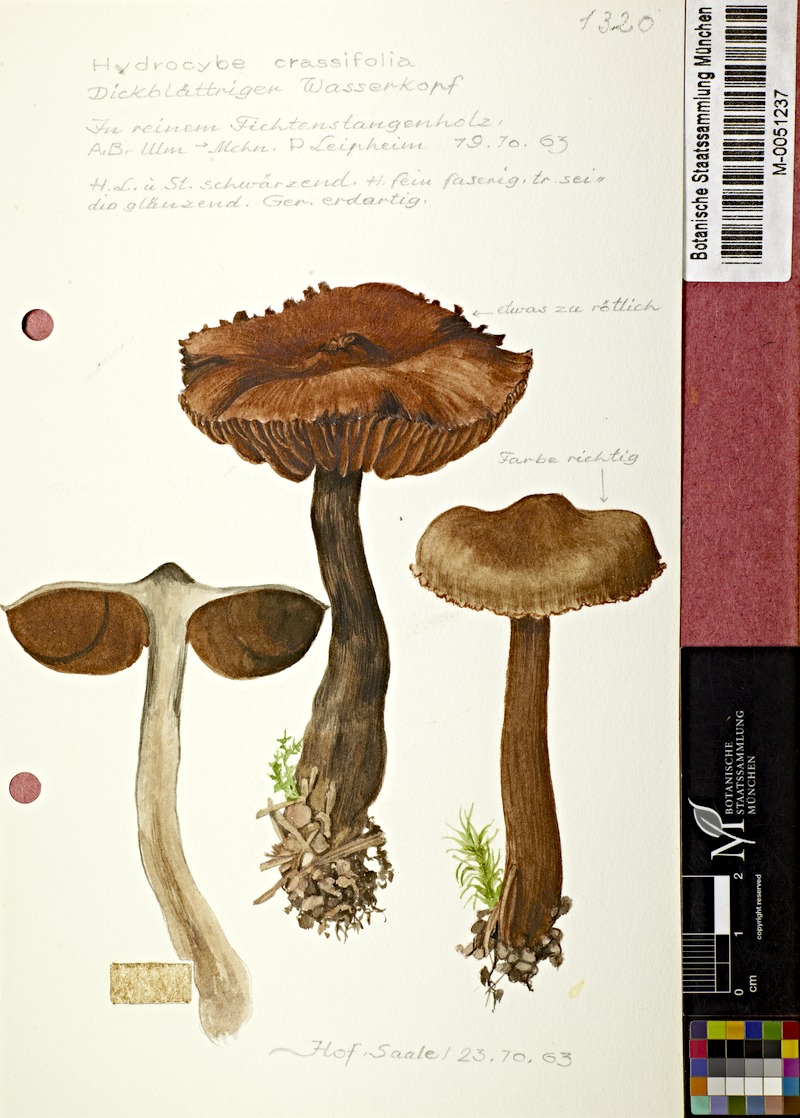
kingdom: Fungi
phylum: Basidiomycota
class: Agaricomycetes
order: Agaricales
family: Cortinariaceae
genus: Cortinarius
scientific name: Cortinarius crassifolius
